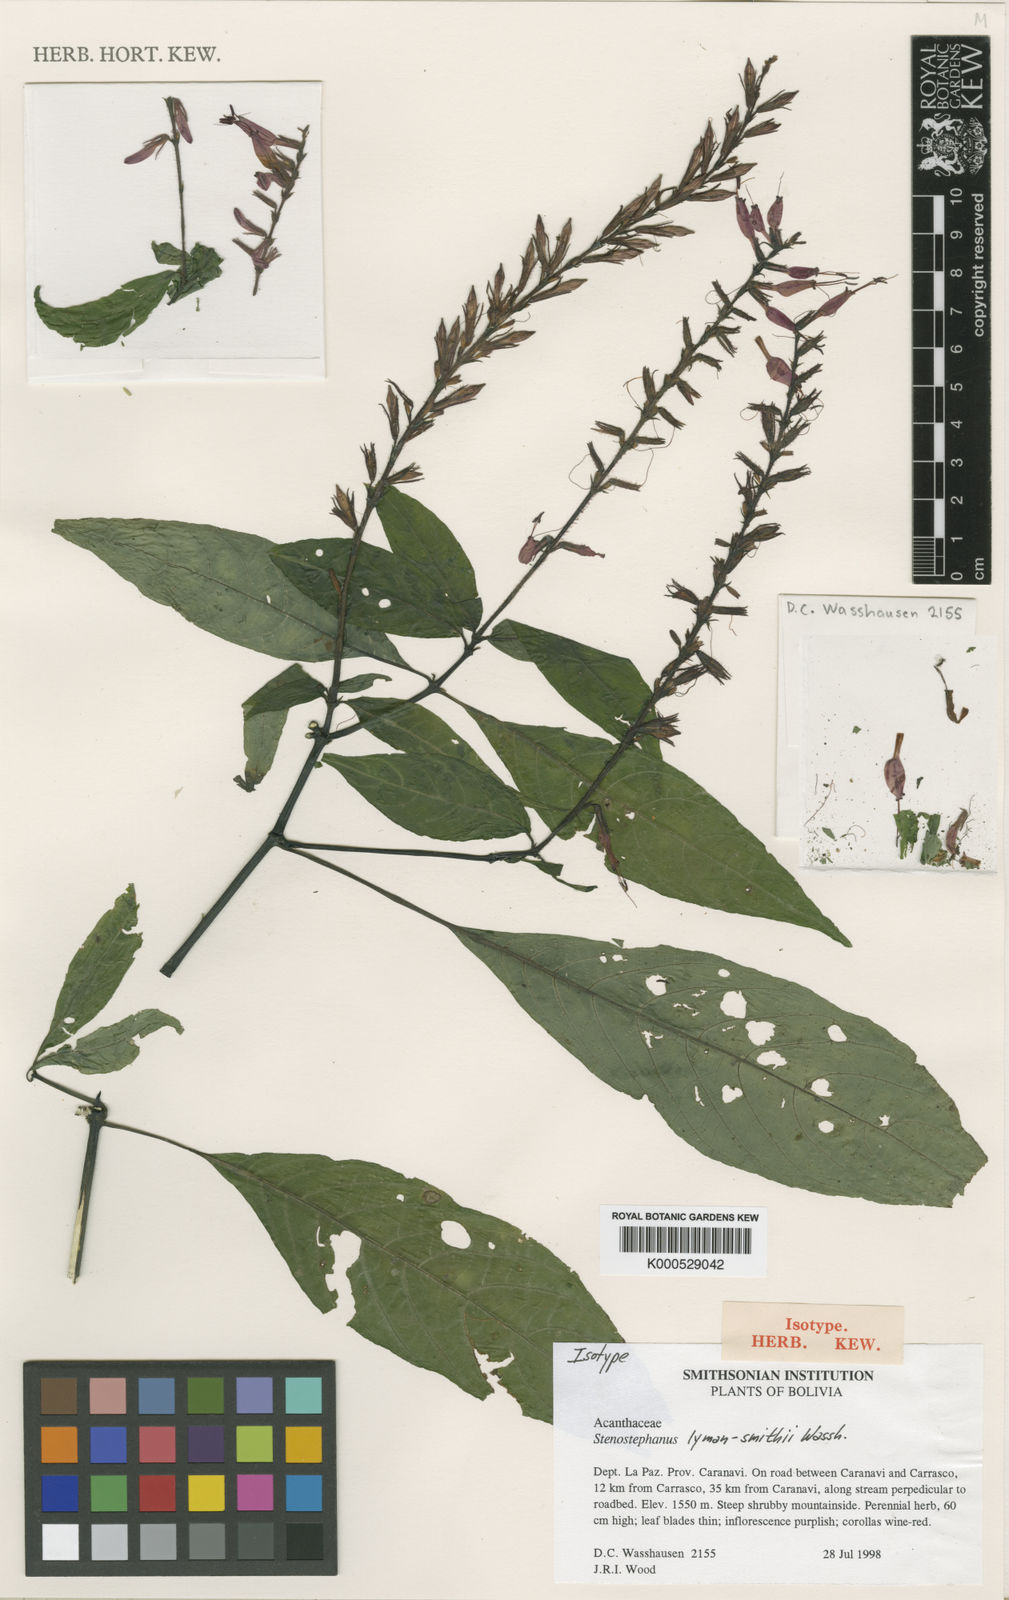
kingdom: Plantae
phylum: Tracheophyta
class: Magnoliopsida
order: Lamiales
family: Acanthaceae
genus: Stenostephanus
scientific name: Stenostephanus lyman-smithii
